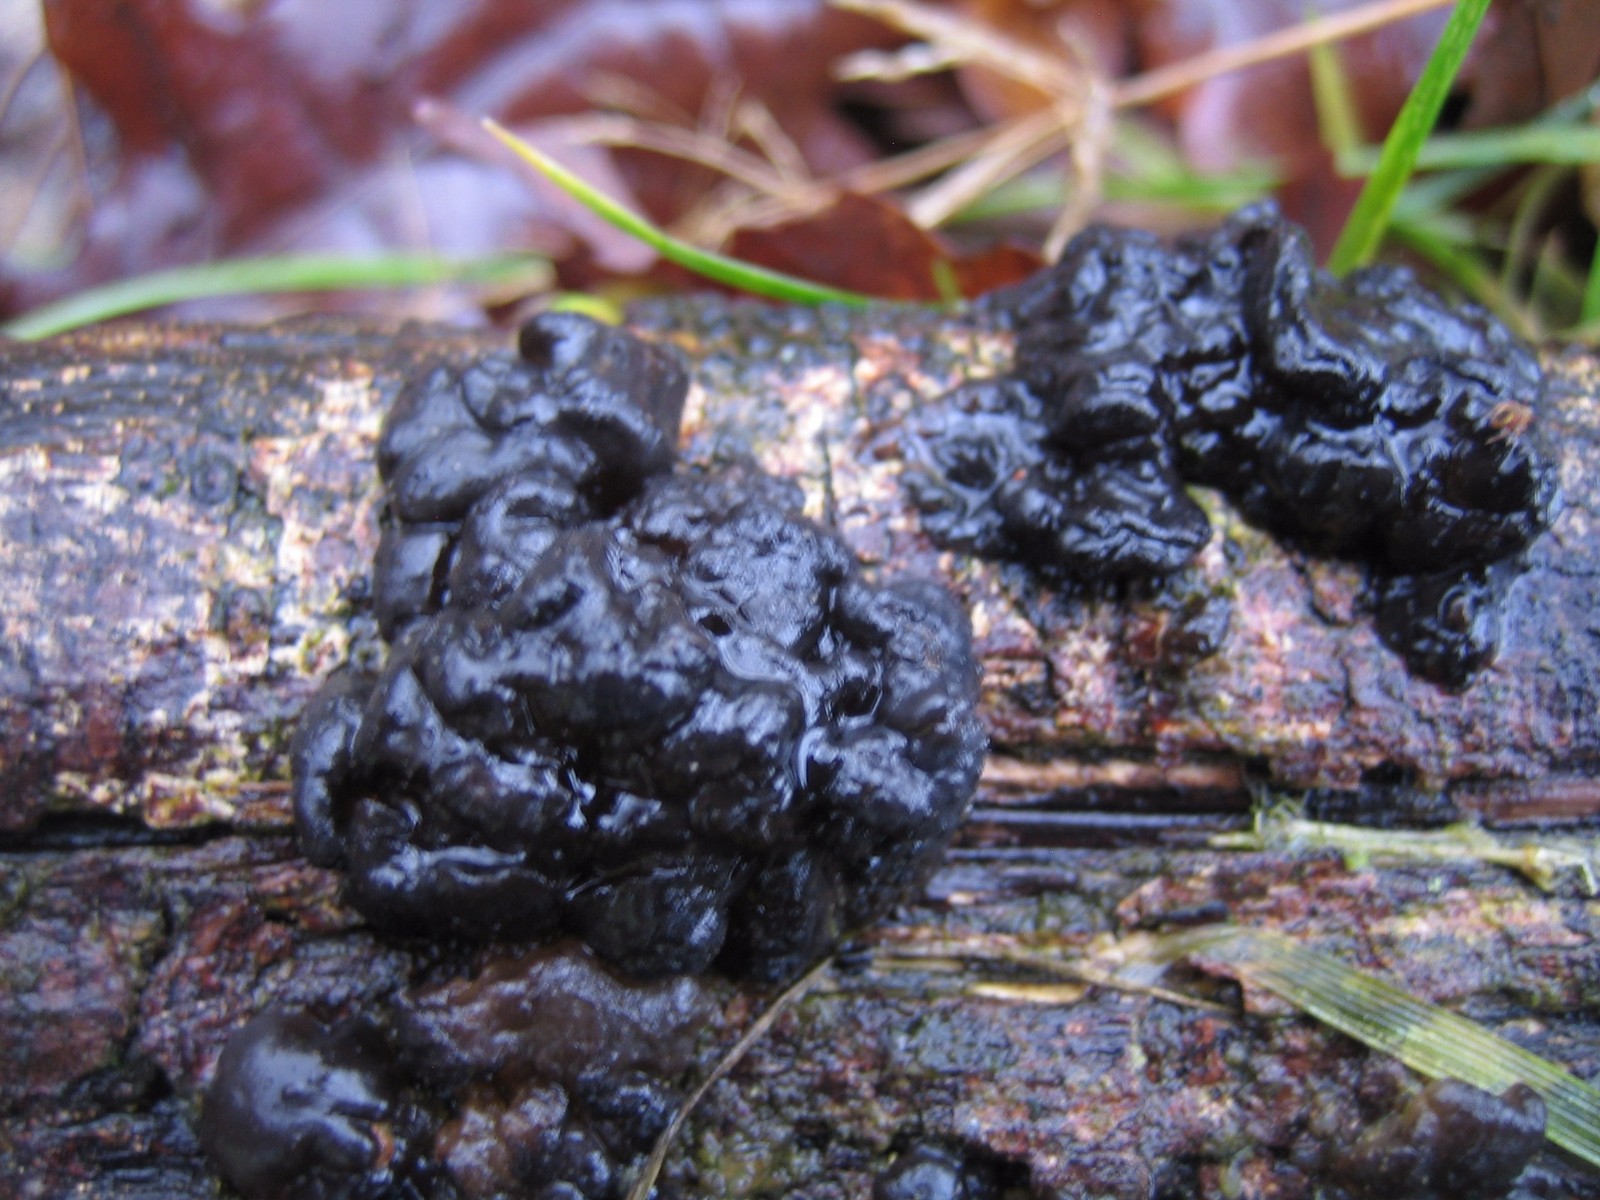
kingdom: Fungi
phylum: Basidiomycota
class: Agaricomycetes
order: Auriculariales
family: Auriculariaceae
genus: Exidia
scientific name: Exidia nigricans
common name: almindelig bævretop
